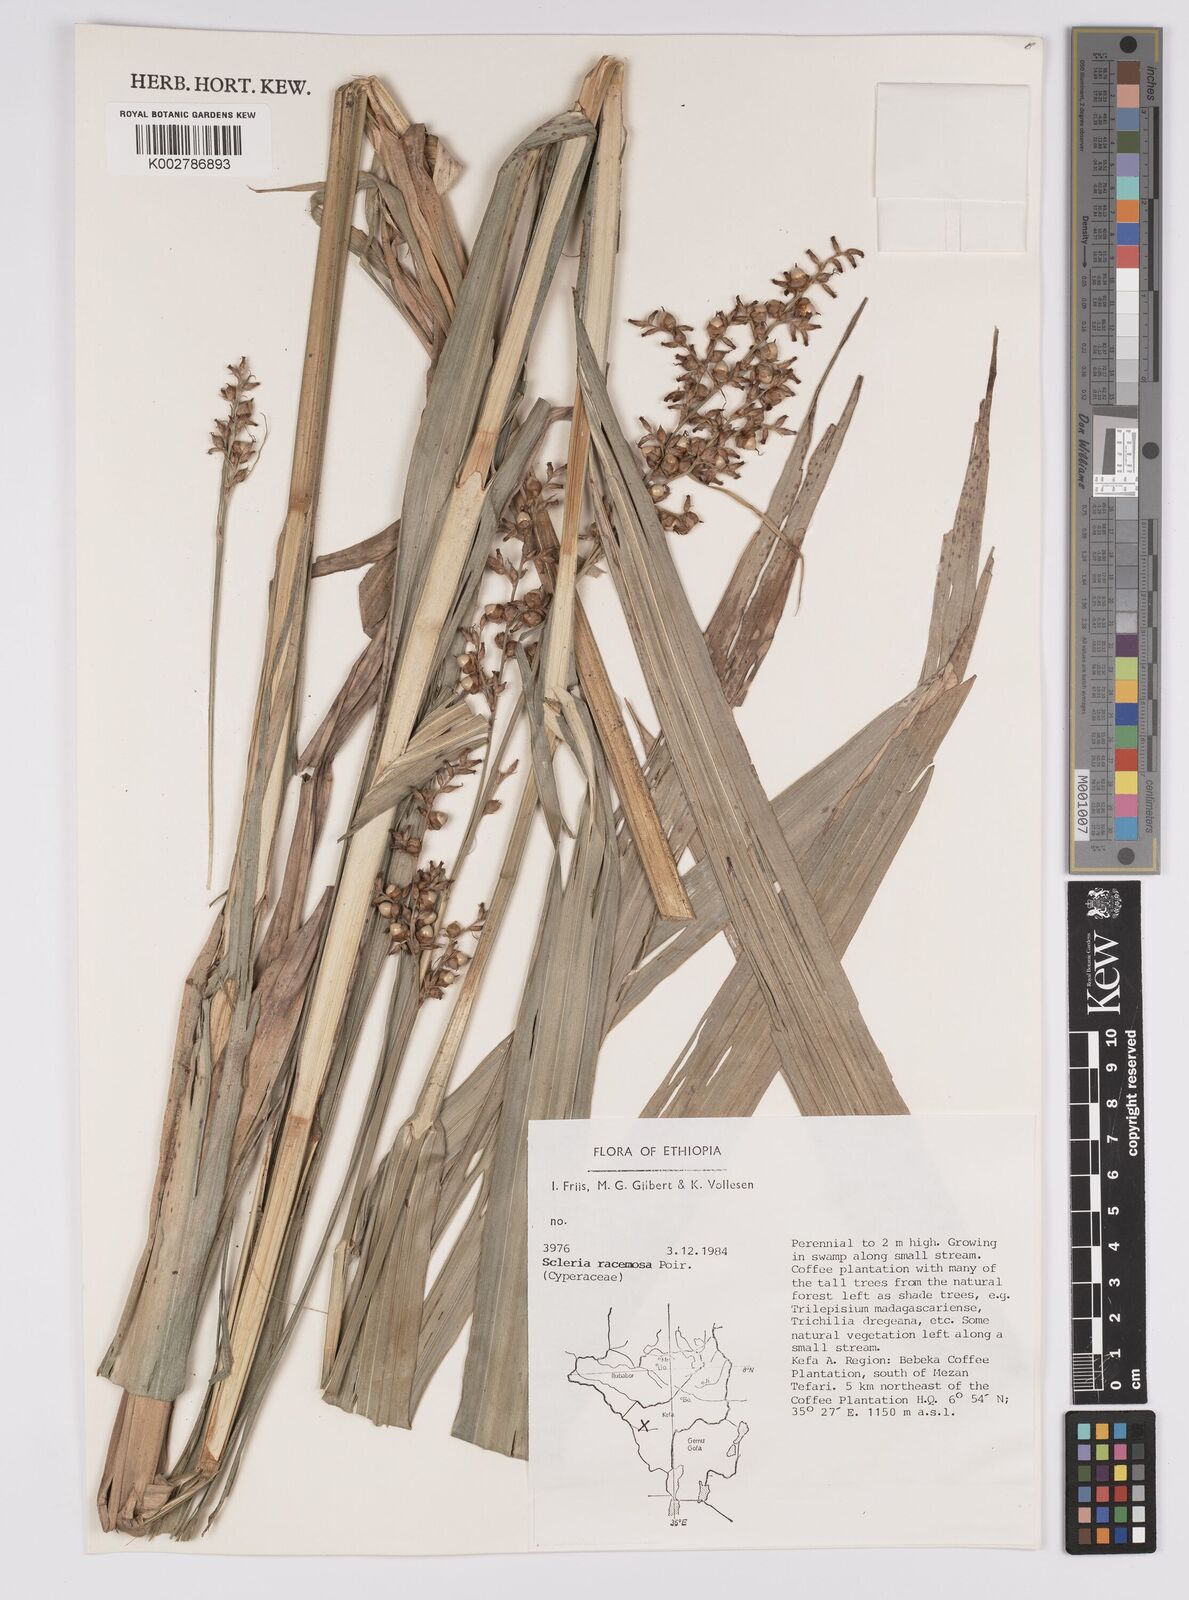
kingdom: Plantae
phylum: Tracheophyta
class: Liliopsida
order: Poales
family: Cyperaceae
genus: Scleria
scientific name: Scleria racemosa
